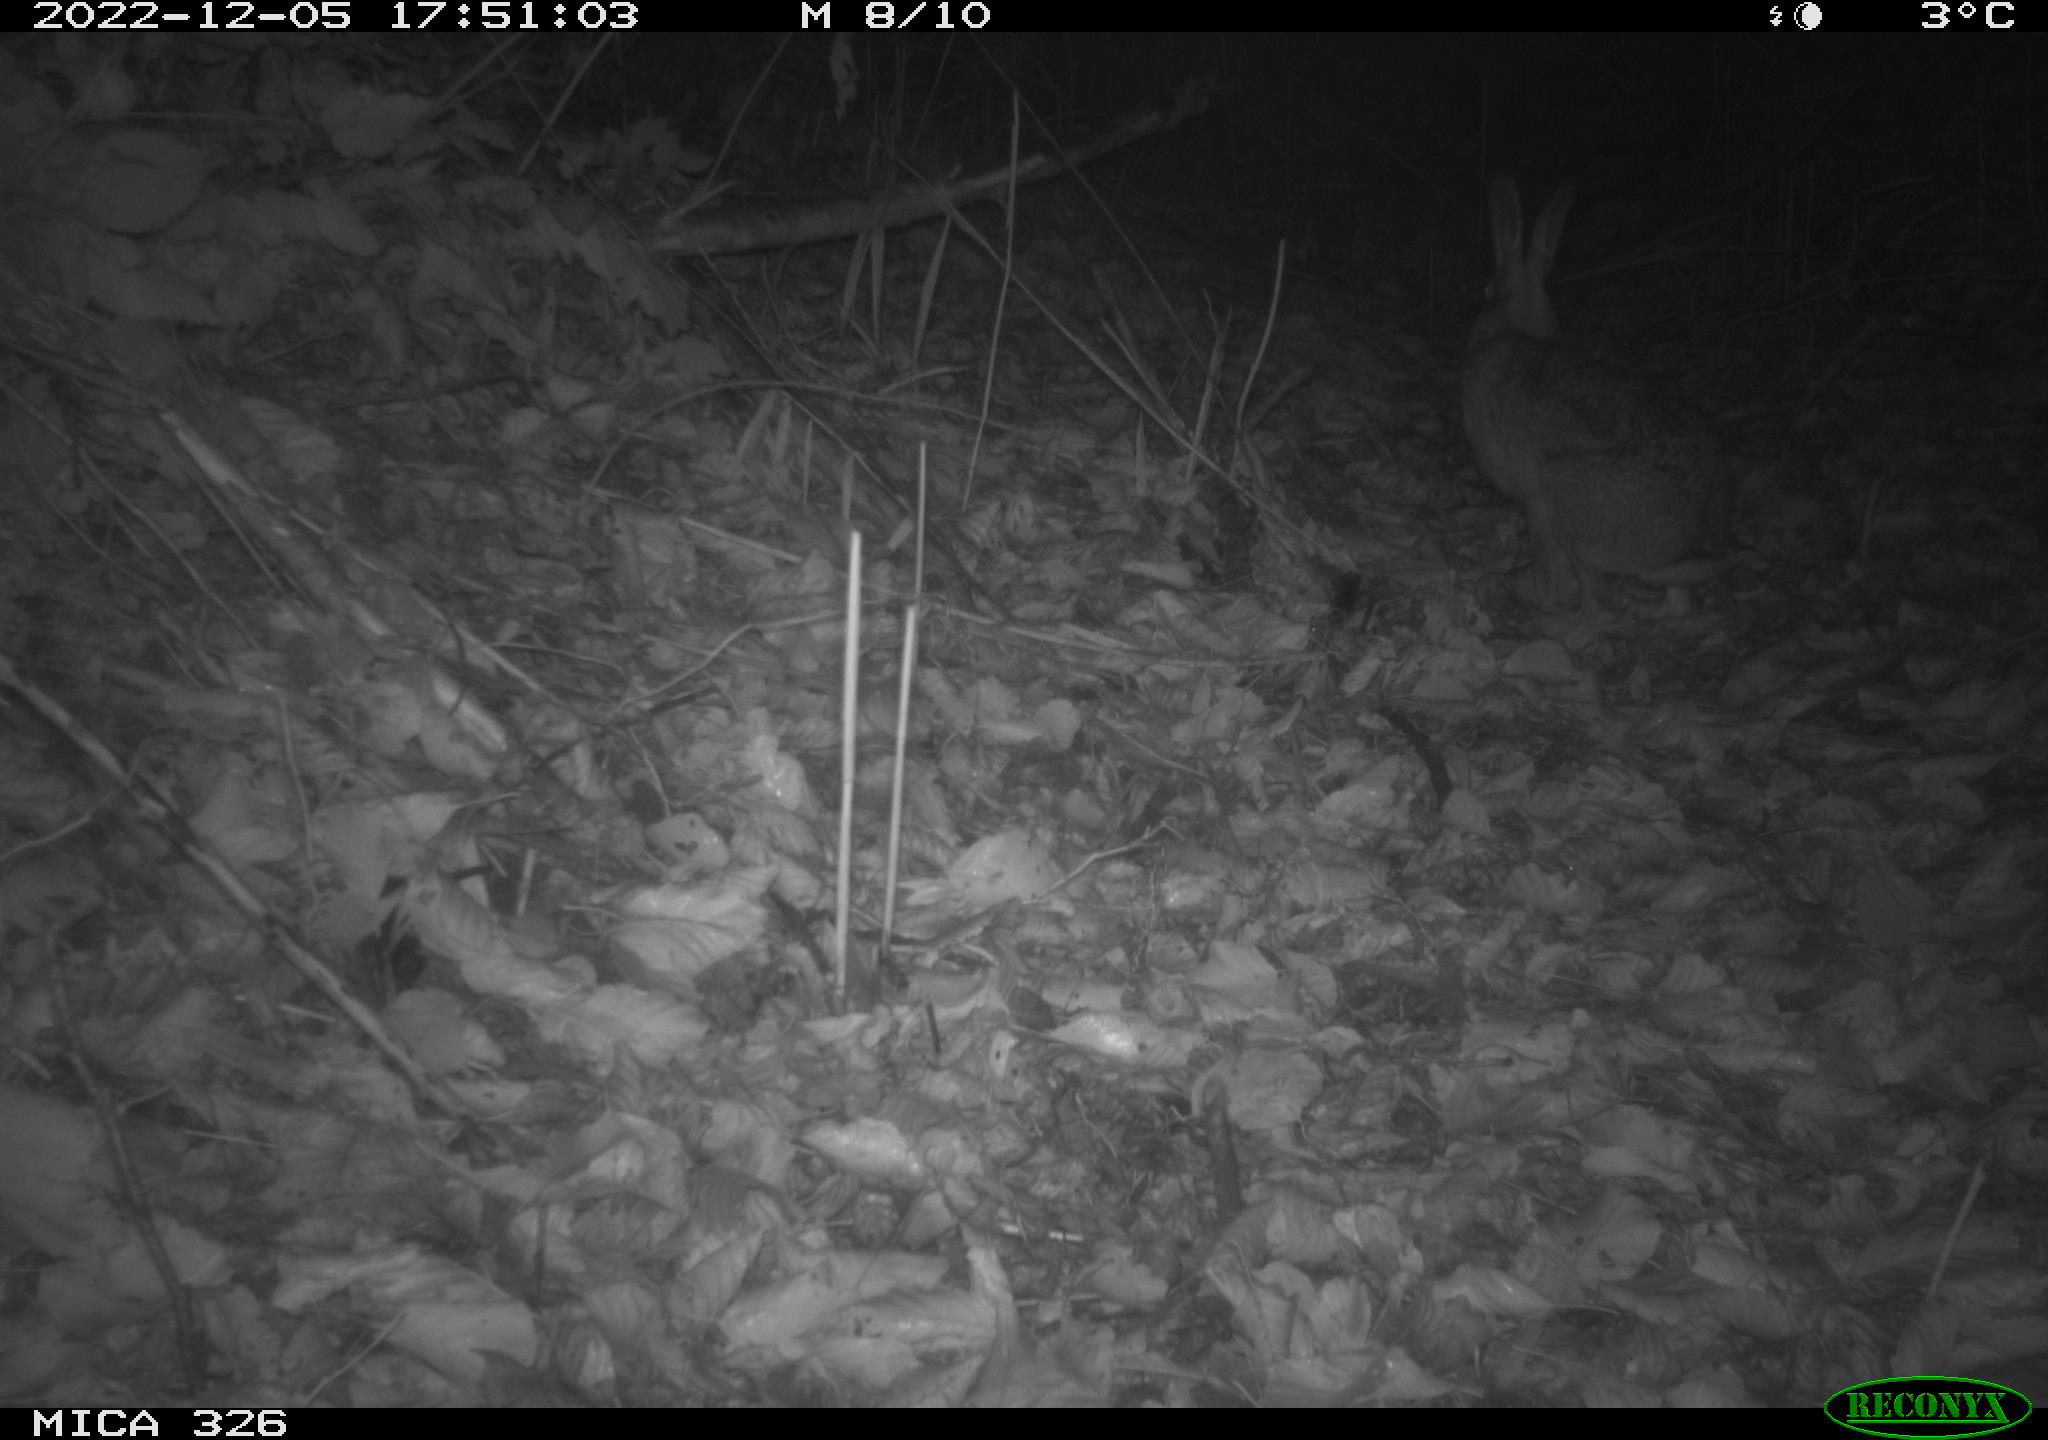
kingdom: Animalia
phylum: Chordata
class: Mammalia
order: Lagomorpha
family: Leporidae
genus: Lepus
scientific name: Lepus europaeus
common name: European hare
